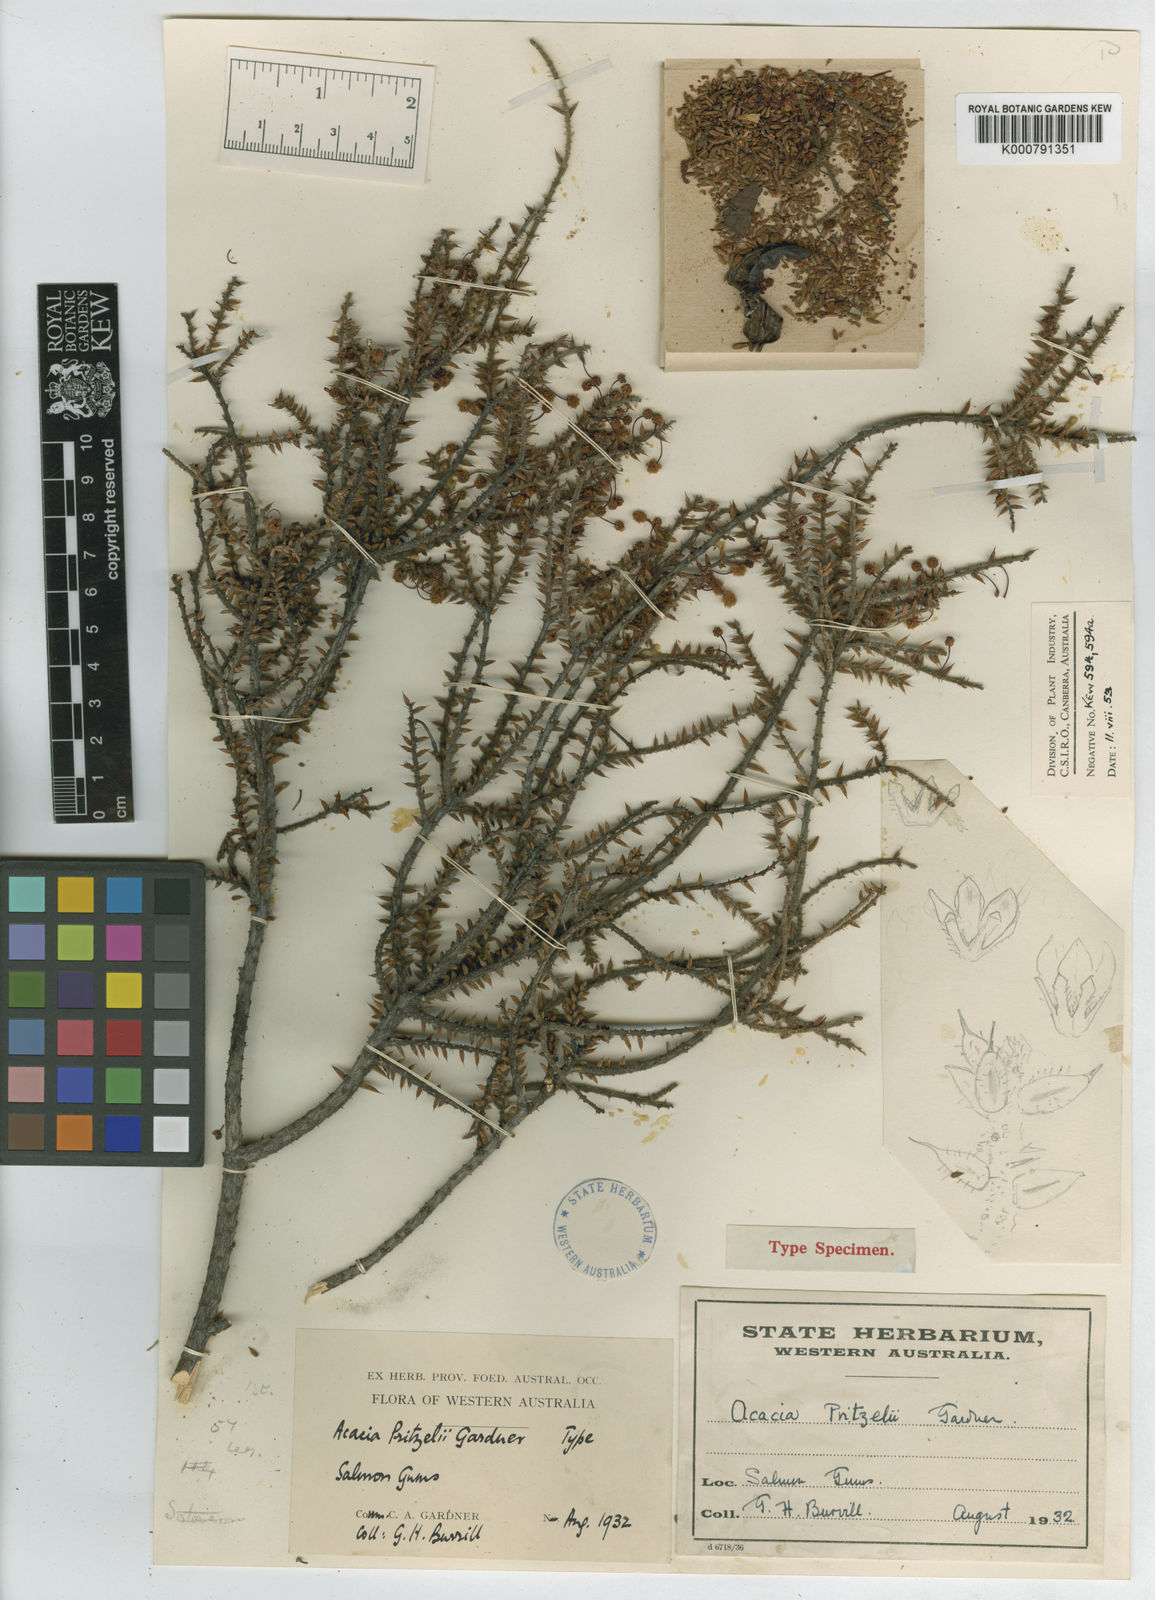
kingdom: Plantae
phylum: Tracheophyta
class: Magnoliopsida
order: Fabales
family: Fabaceae
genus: Acacia
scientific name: Acacia
